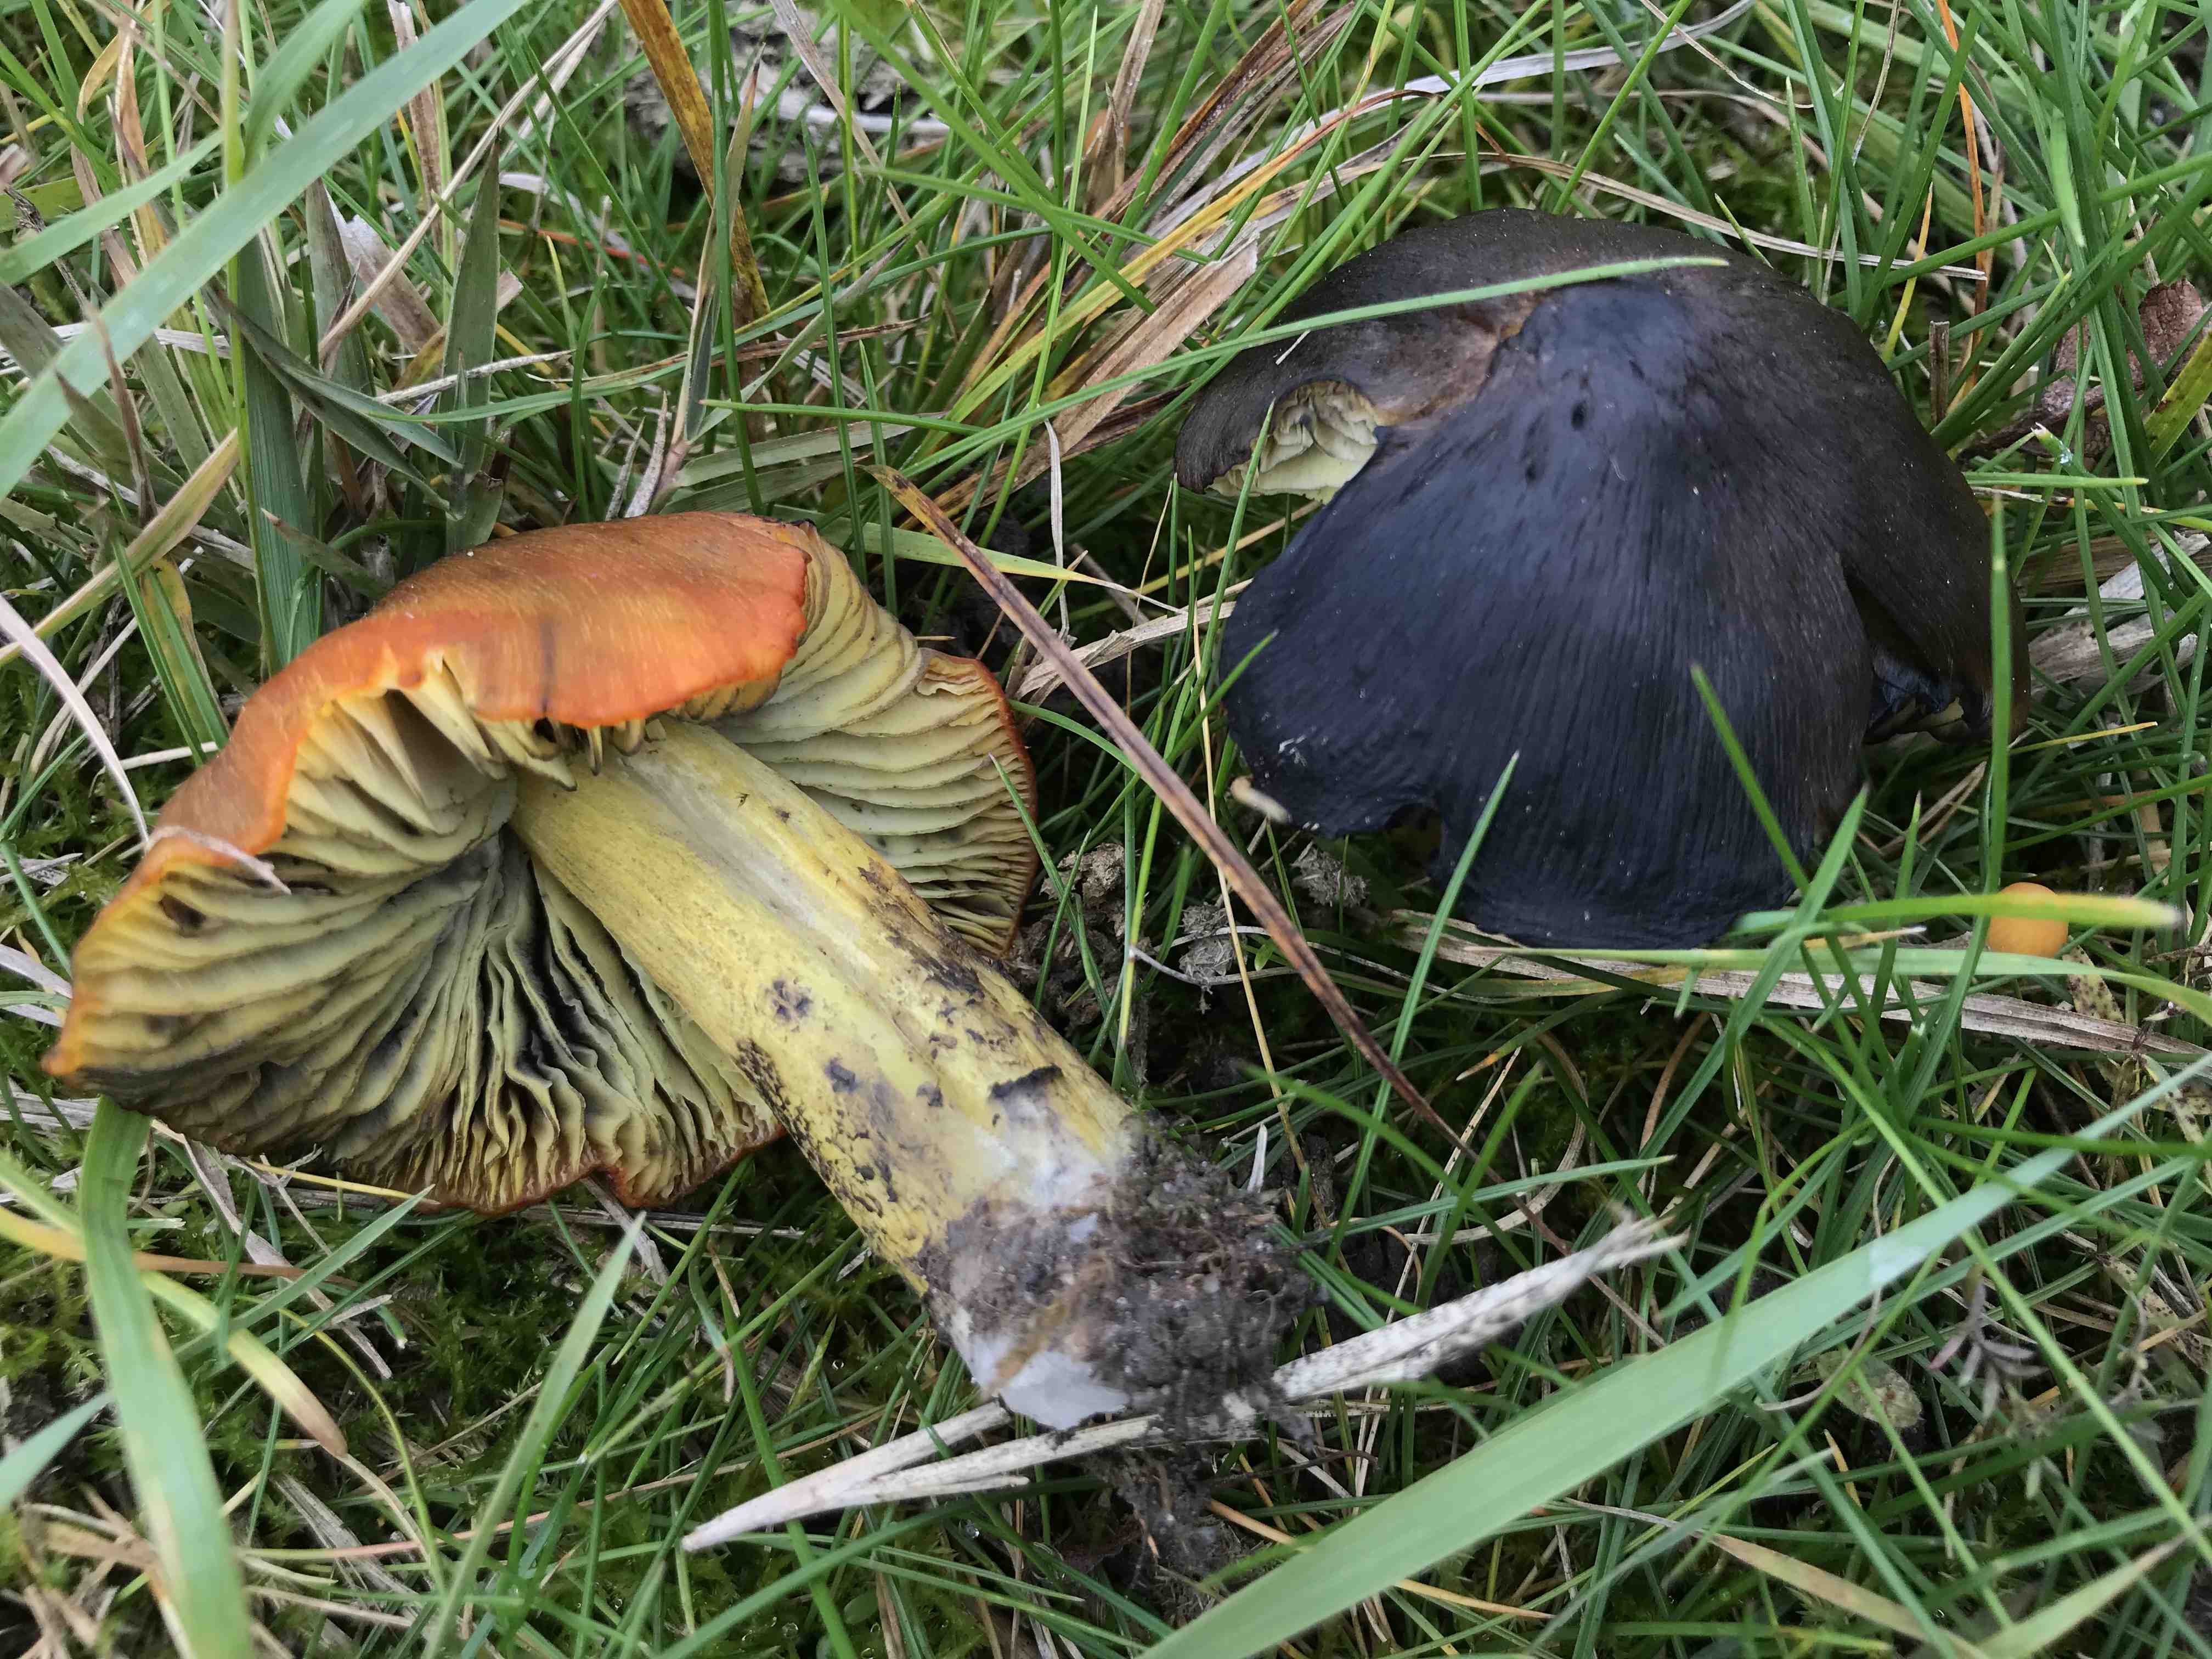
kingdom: Fungi
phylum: Basidiomycota
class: Agaricomycetes
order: Agaricales
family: Hygrophoraceae
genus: Hygrocybe
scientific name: Hygrocybe conica
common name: Blackening wax-cap
